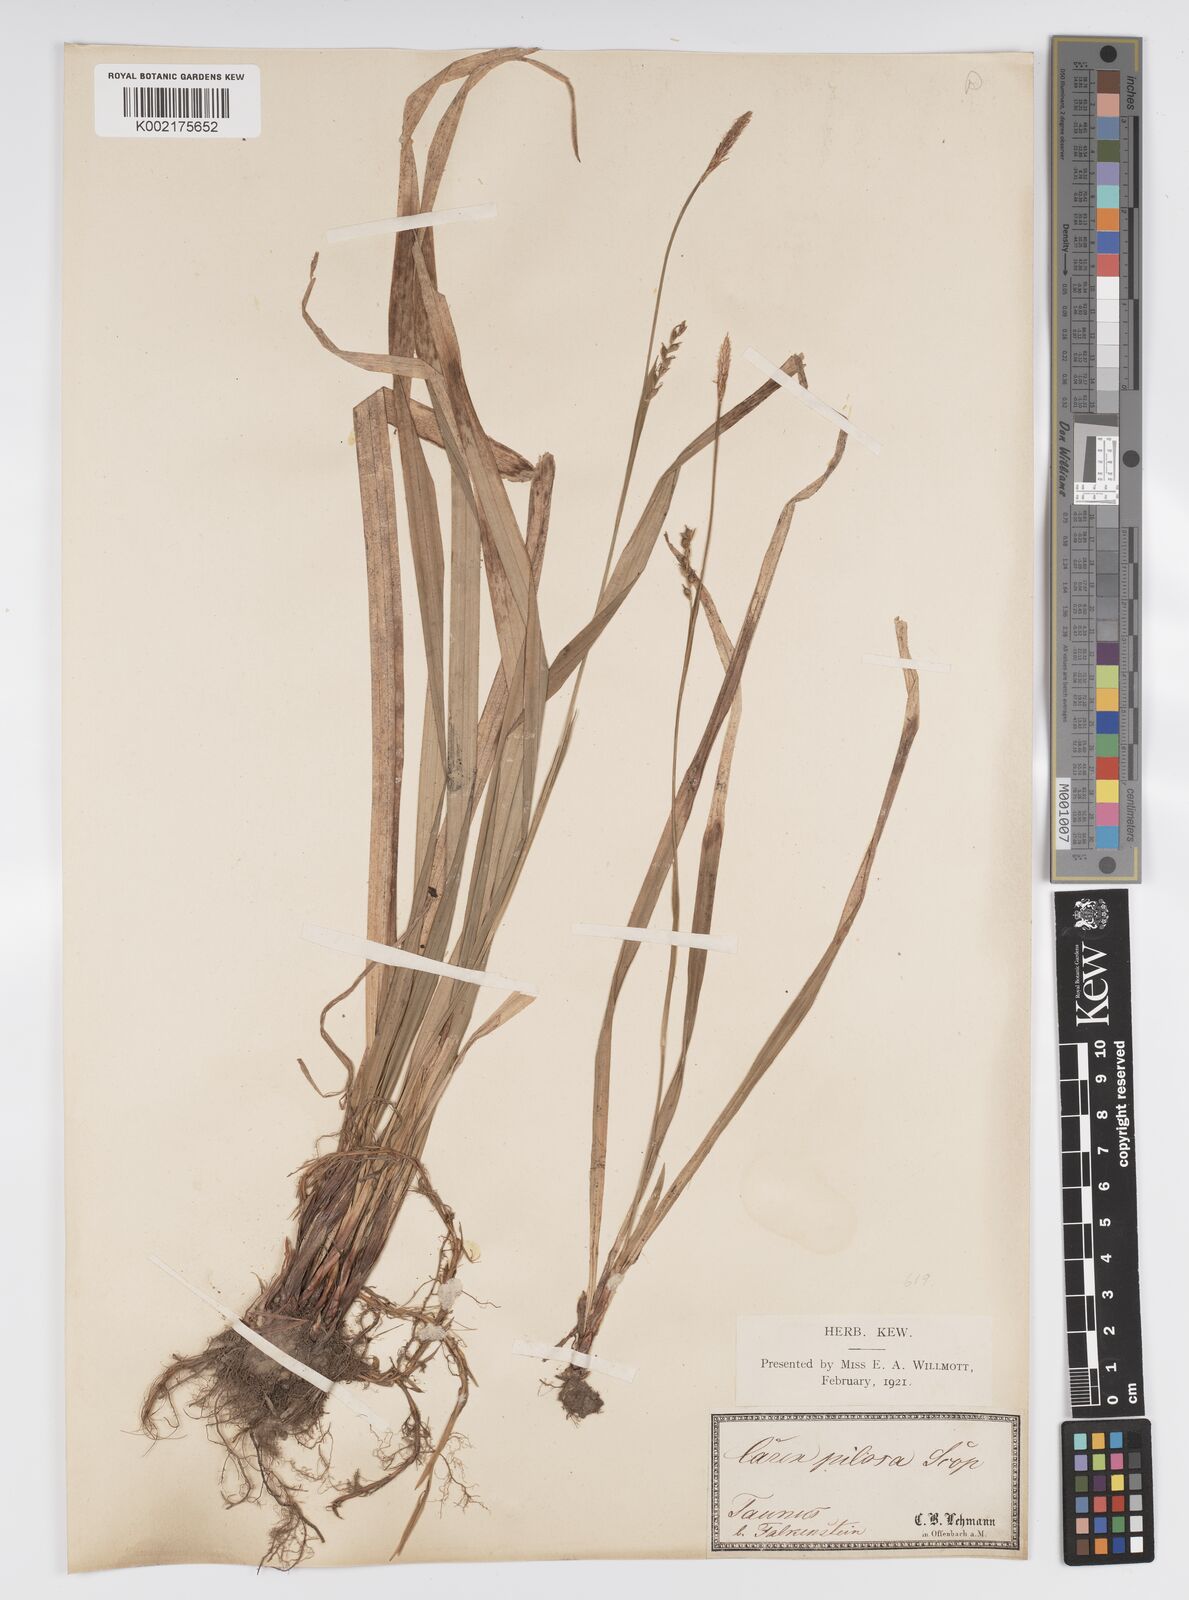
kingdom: Plantae
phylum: Tracheophyta
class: Liliopsida
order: Poales
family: Cyperaceae
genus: Carex
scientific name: Carex pilosa
